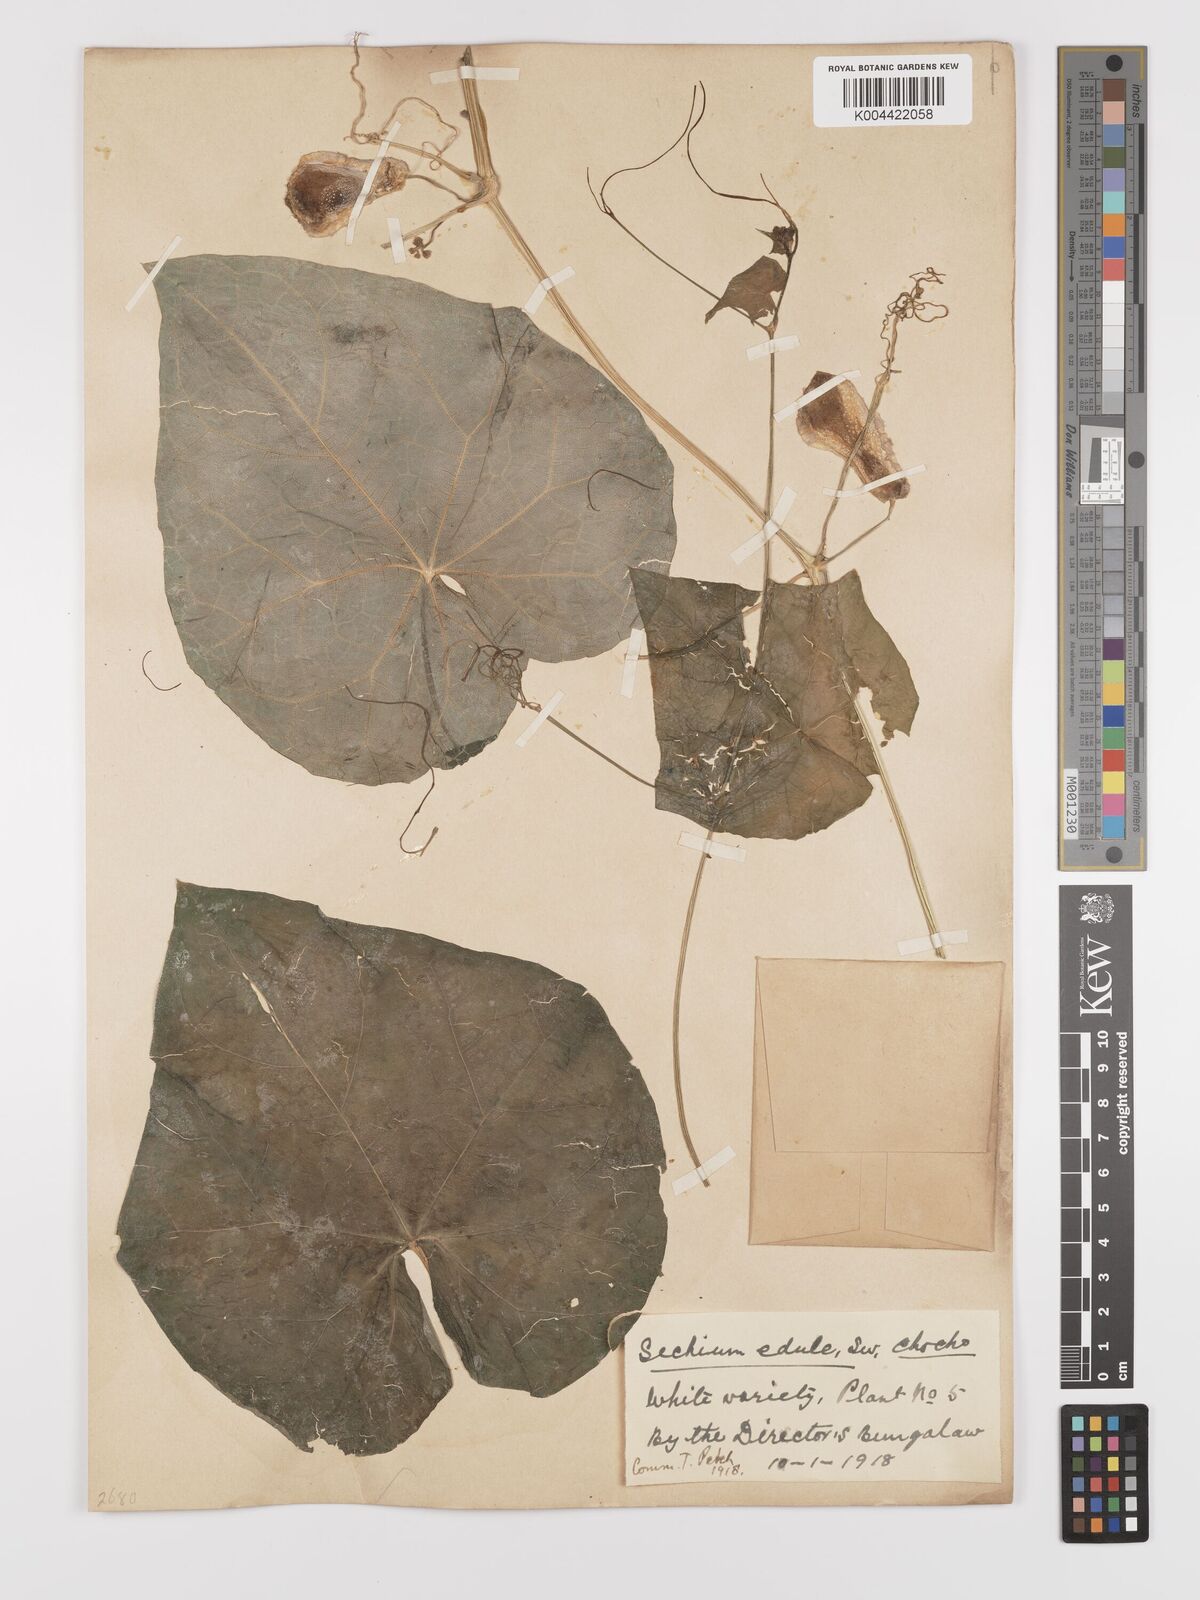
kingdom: Plantae
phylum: Tracheophyta
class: Magnoliopsida
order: Cucurbitales
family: Cucurbitaceae
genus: Sechium
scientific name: Sechium edule
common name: Chayote
